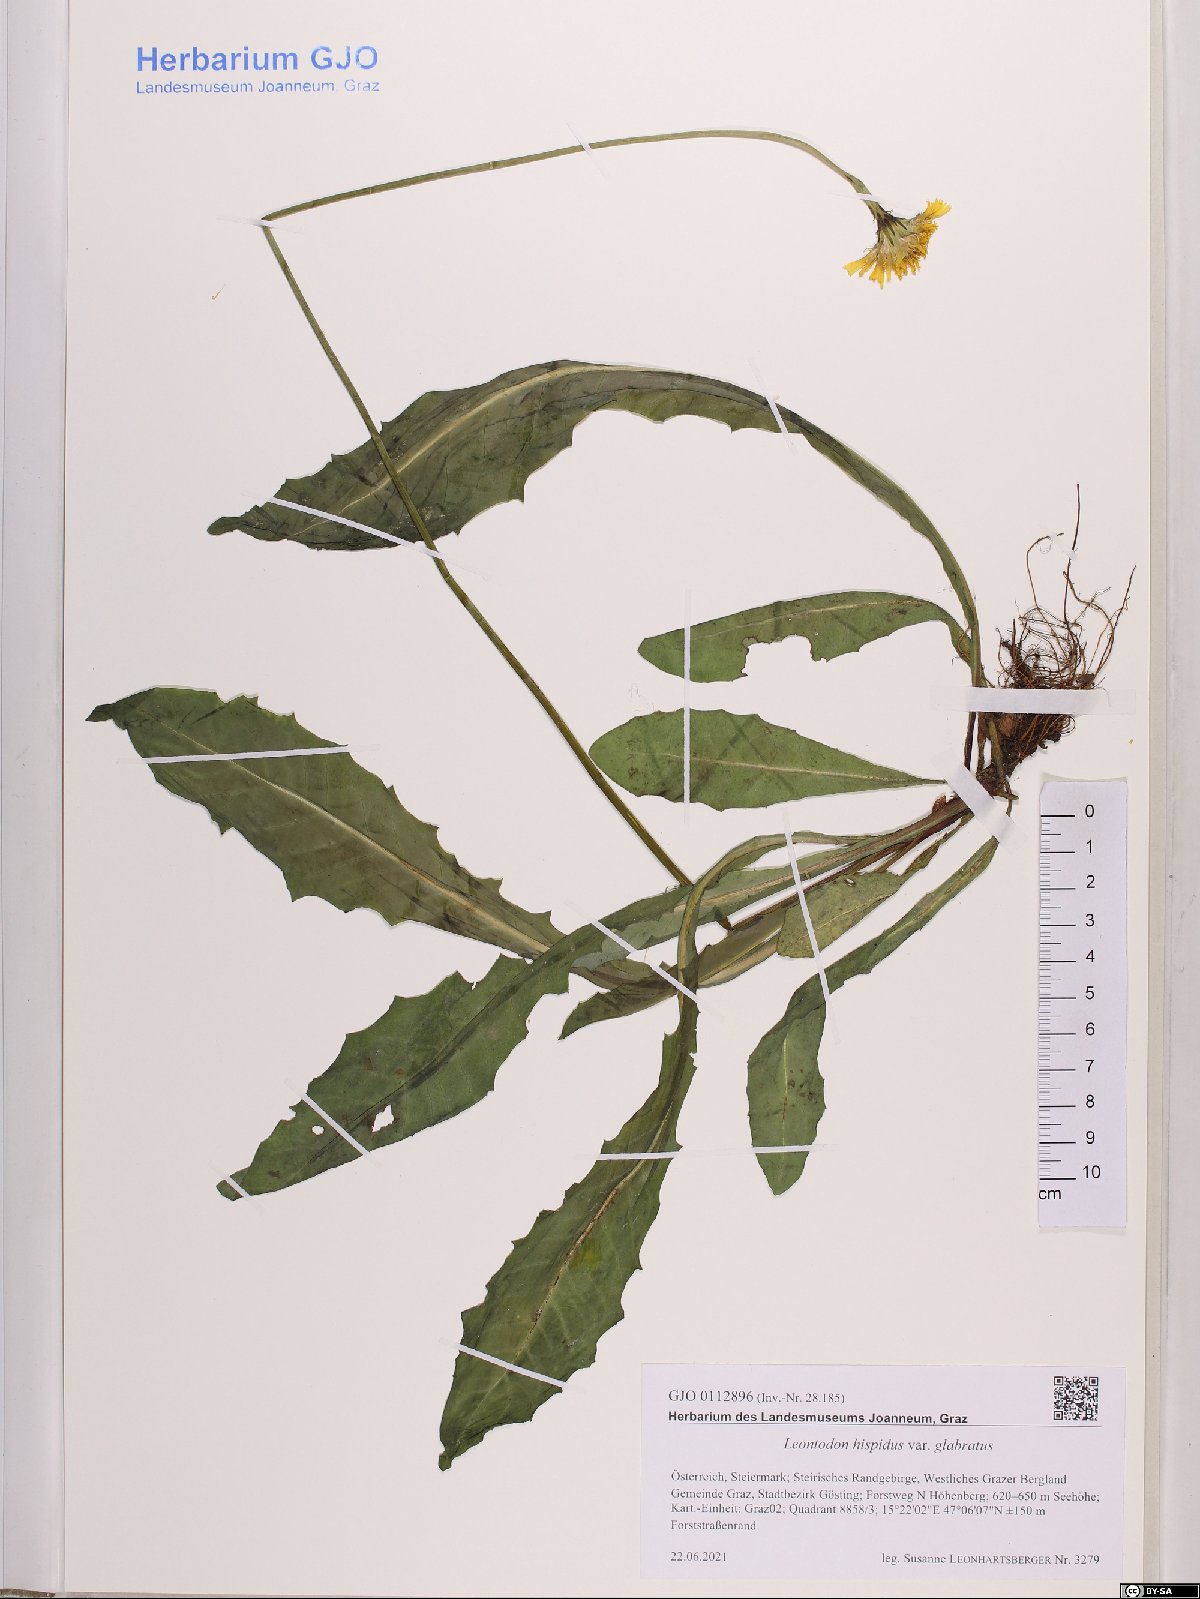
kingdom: Plantae
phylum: Tracheophyta
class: Magnoliopsida
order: Asterales
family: Asteraceae
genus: Leontodon
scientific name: Leontodon hispidus
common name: Rough hawkbit
